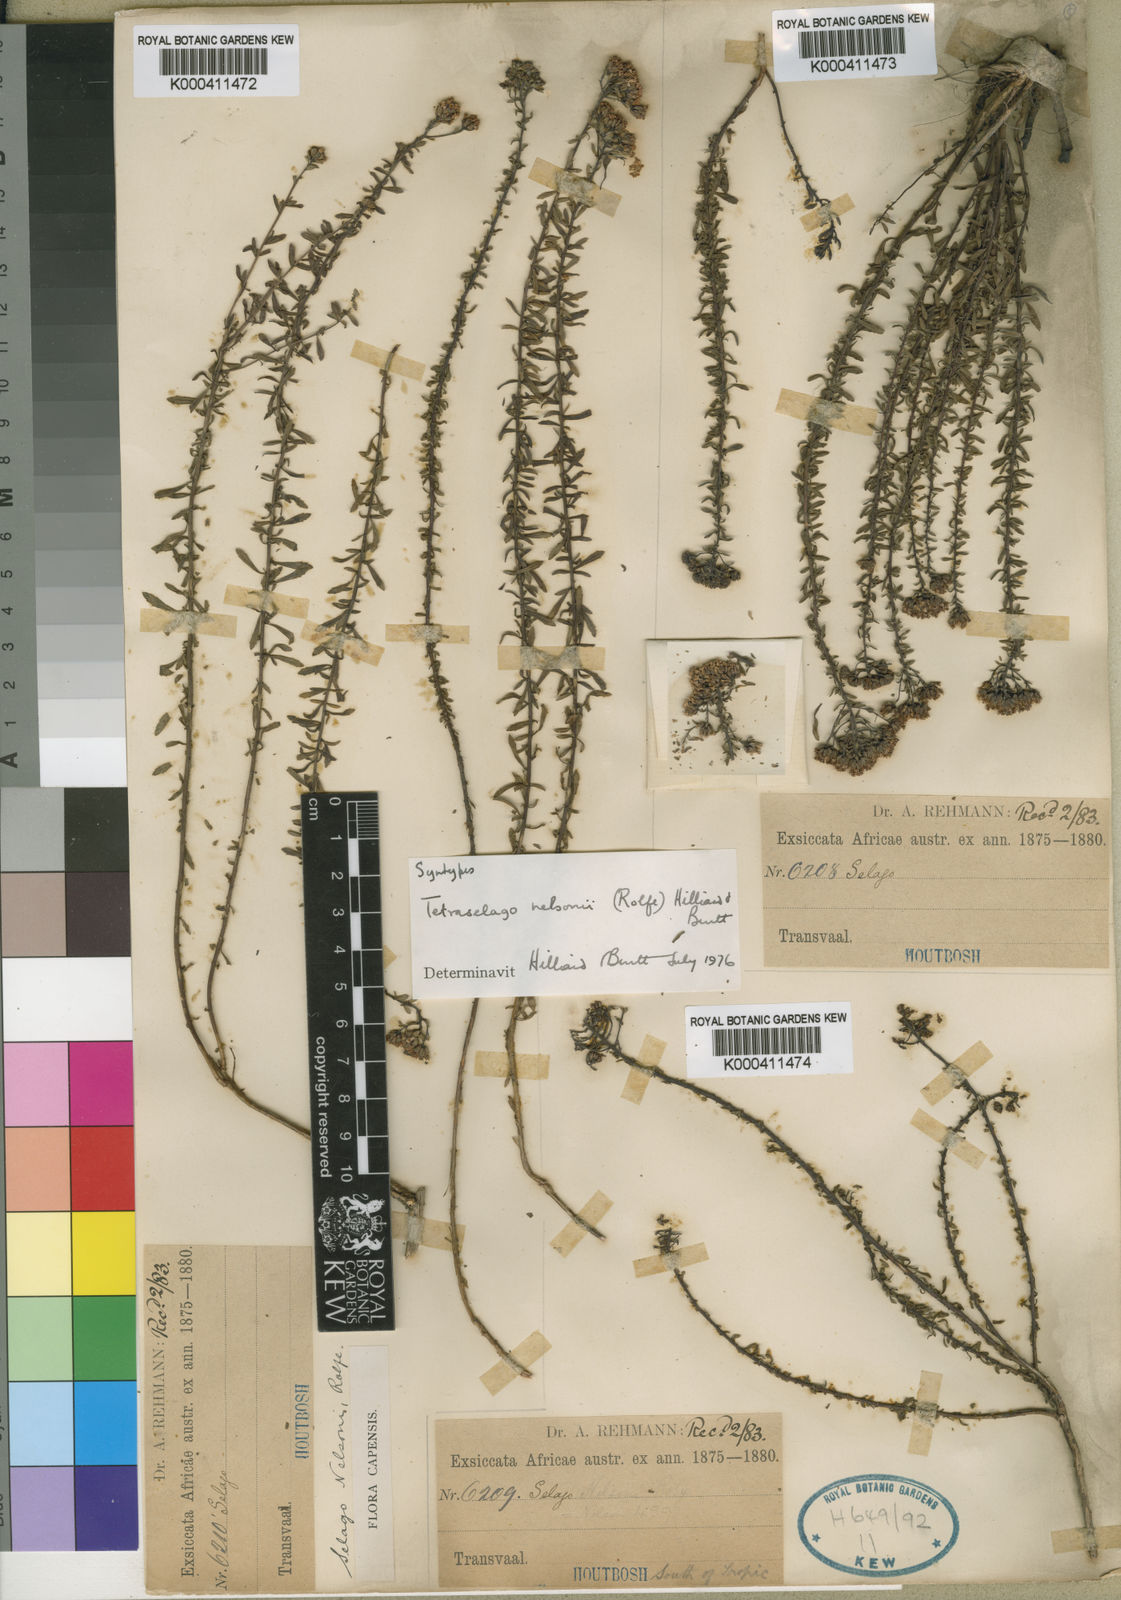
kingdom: Plantae
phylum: Tracheophyta
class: Magnoliopsida
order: Lamiales
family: Scrophulariaceae
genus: Tetraselago
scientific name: Tetraselago nelsonii
